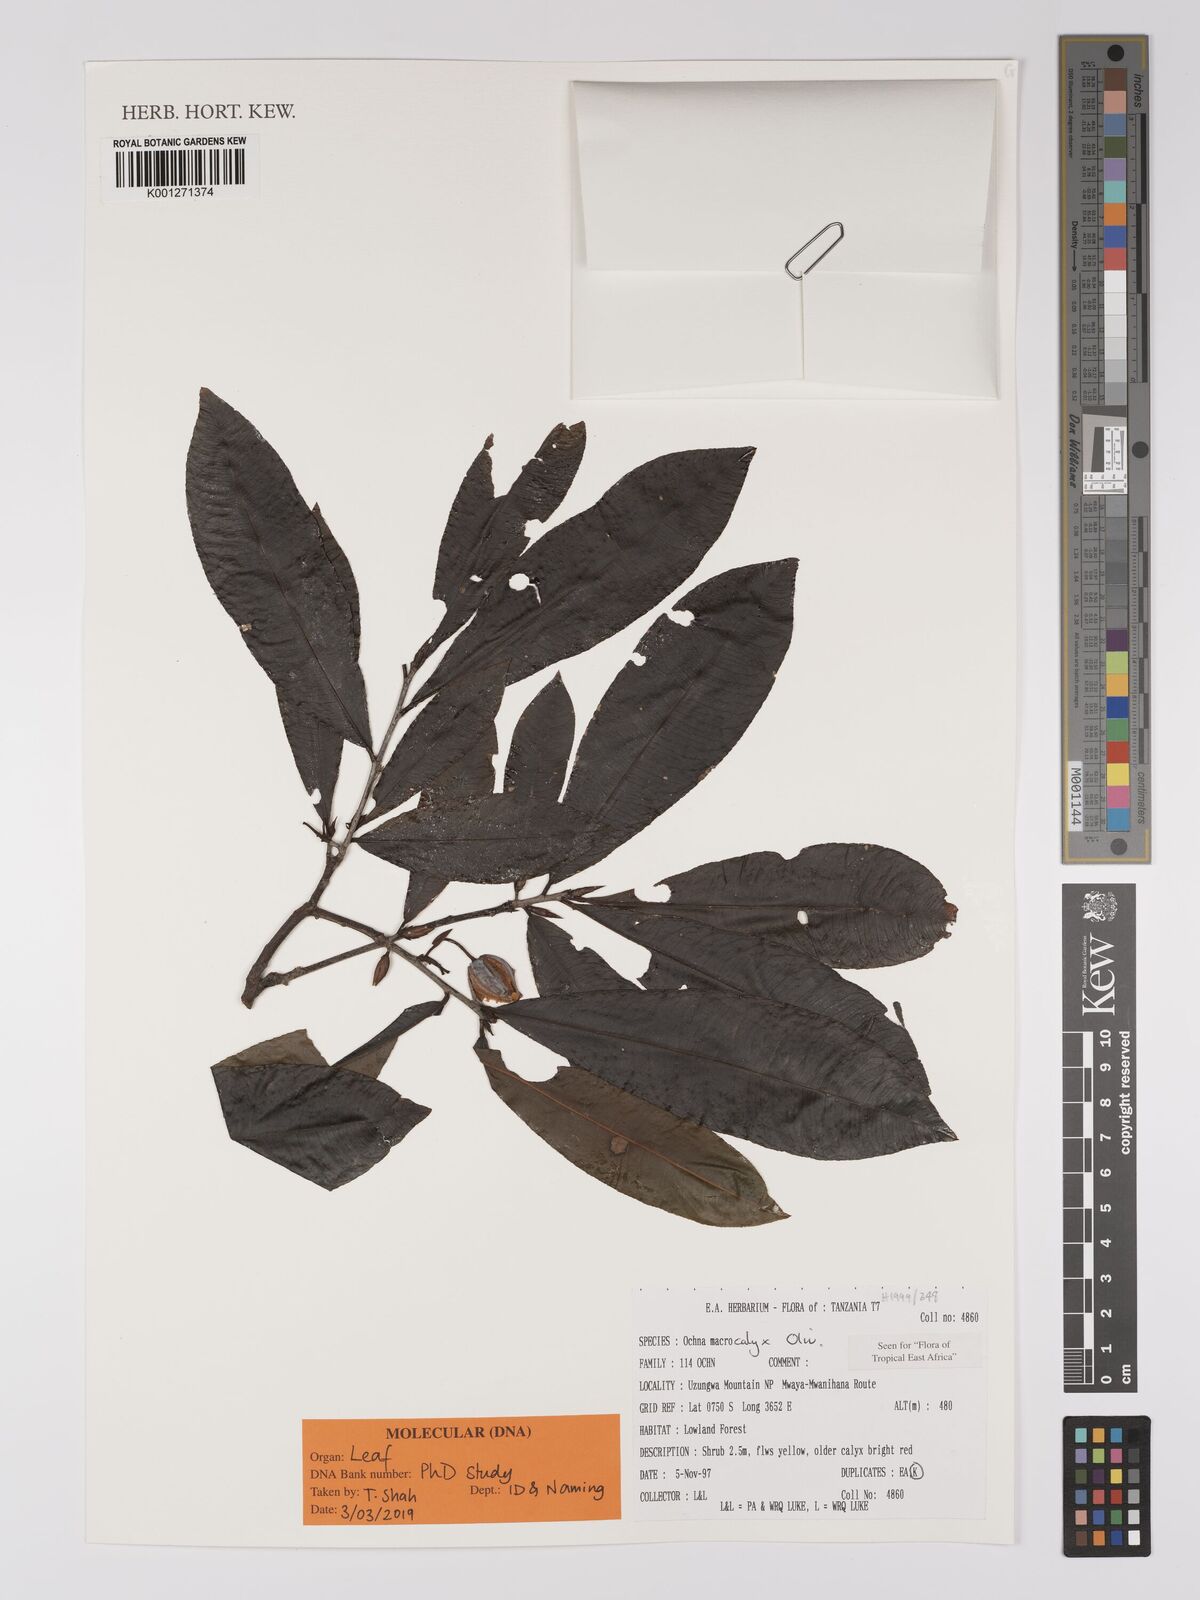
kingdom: Plantae
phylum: Tracheophyta
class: Magnoliopsida
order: Malpighiales
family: Ochnaceae
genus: Ochna
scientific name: Ochna macrocalyx
